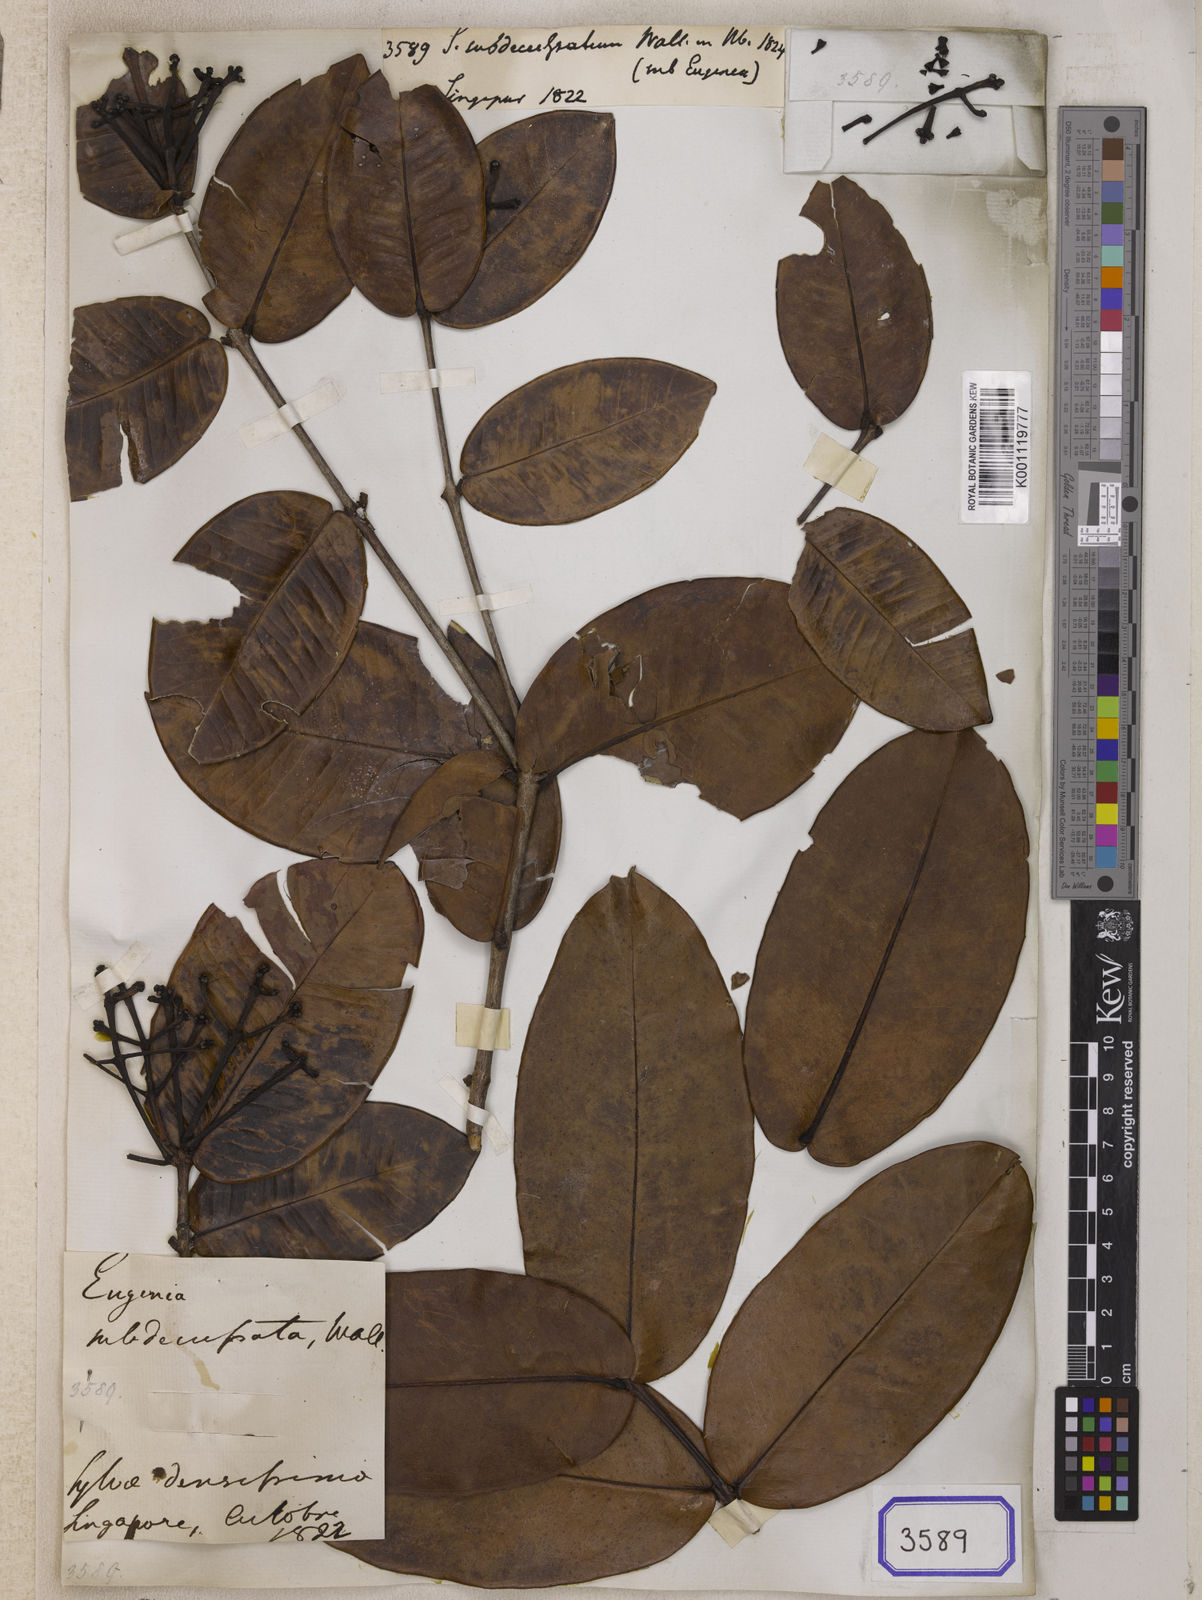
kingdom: Plantae
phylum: Tracheophyta
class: Magnoliopsida
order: Myrtales
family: Myrtaceae
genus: Syzygium
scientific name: Syzygium
